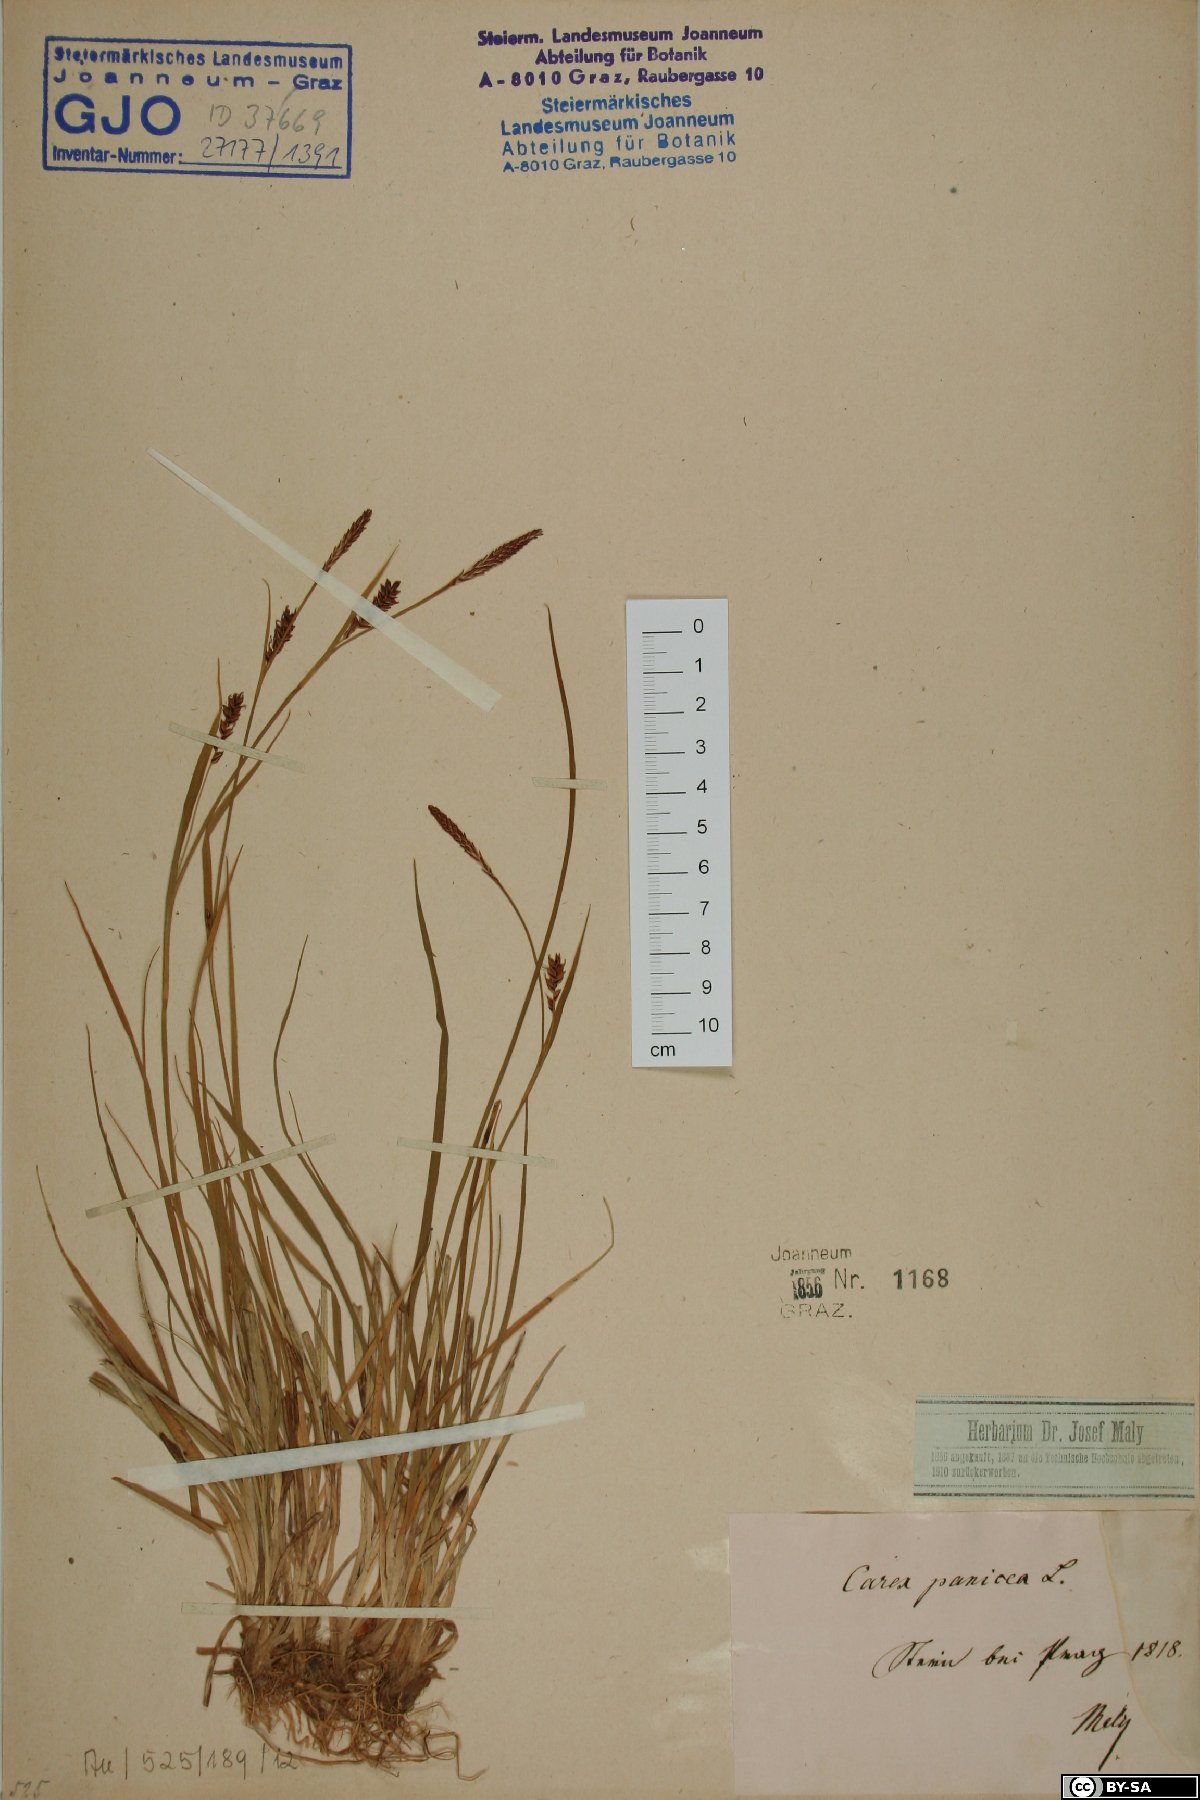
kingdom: Plantae
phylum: Tracheophyta
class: Liliopsida
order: Poales
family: Cyperaceae
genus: Carex
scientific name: Carex panicea
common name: Carnation sedge
